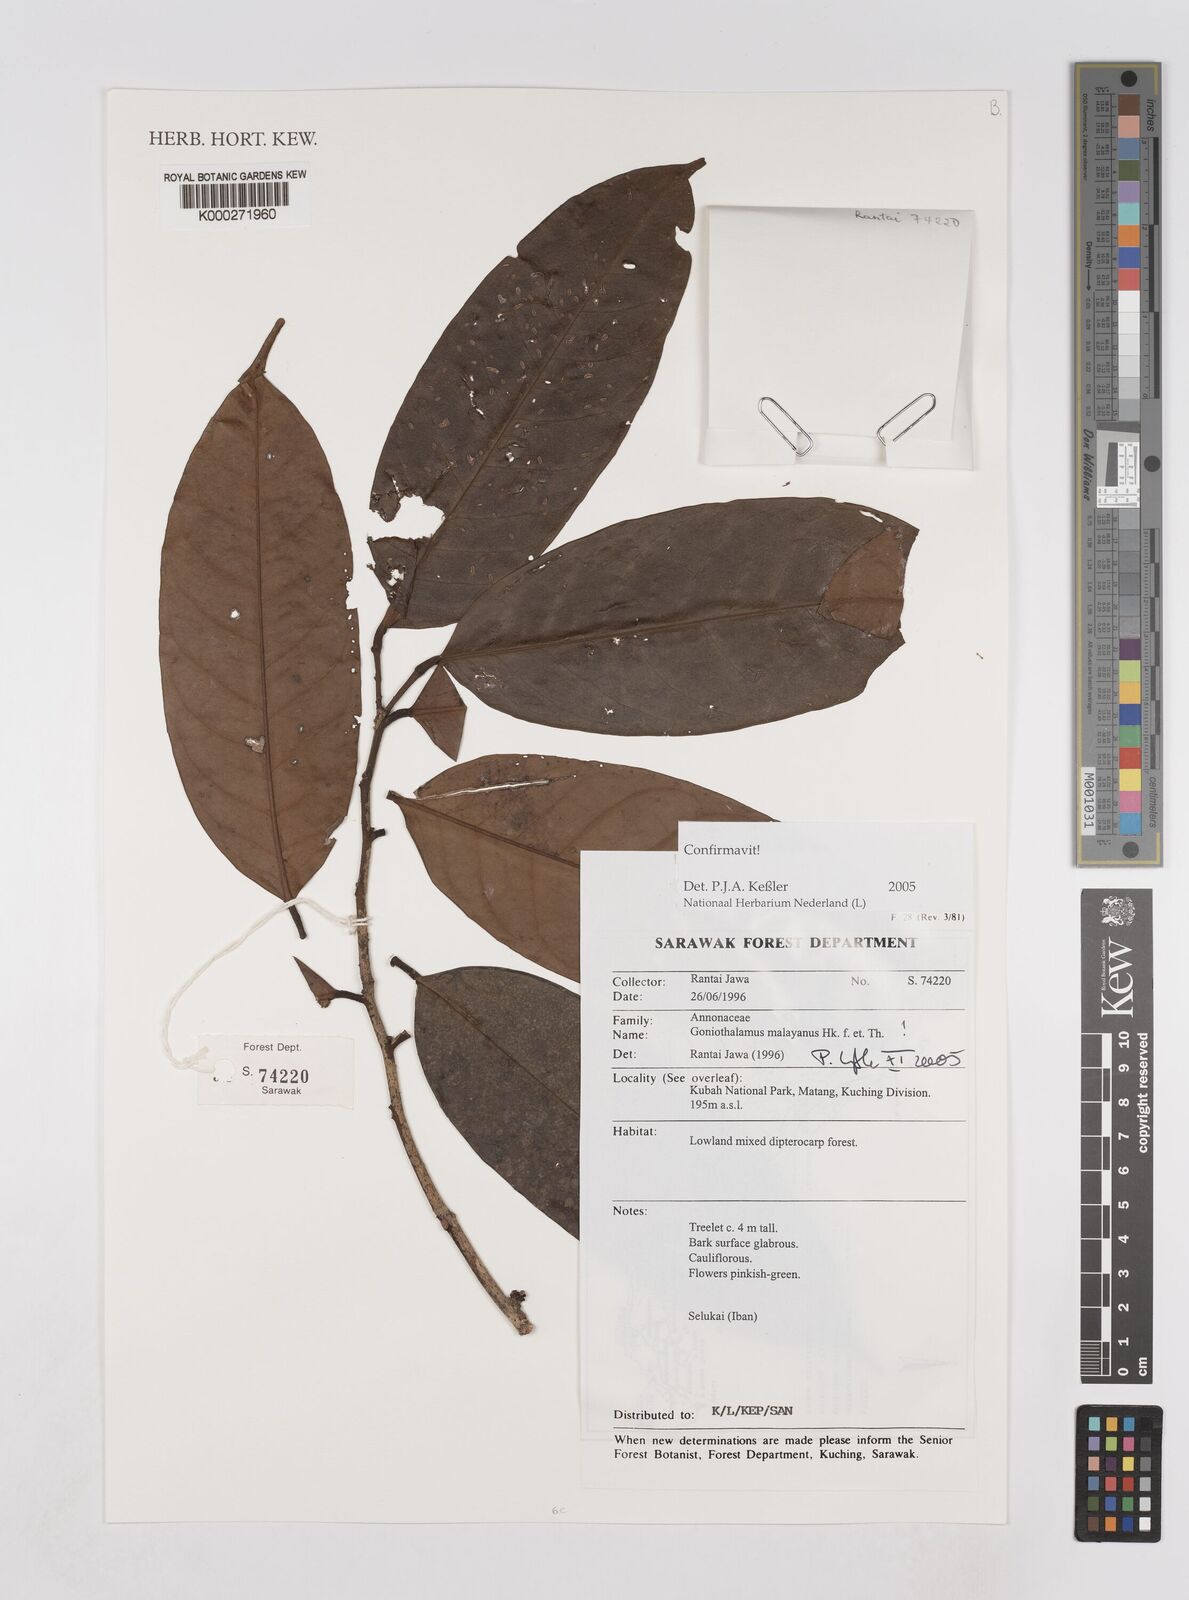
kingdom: Plantae
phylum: Tracheophyta
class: Magnoliopsida
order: Magnoliales
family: Annonaceae
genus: Goniothalamus
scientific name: Goniothalamus malayanus
